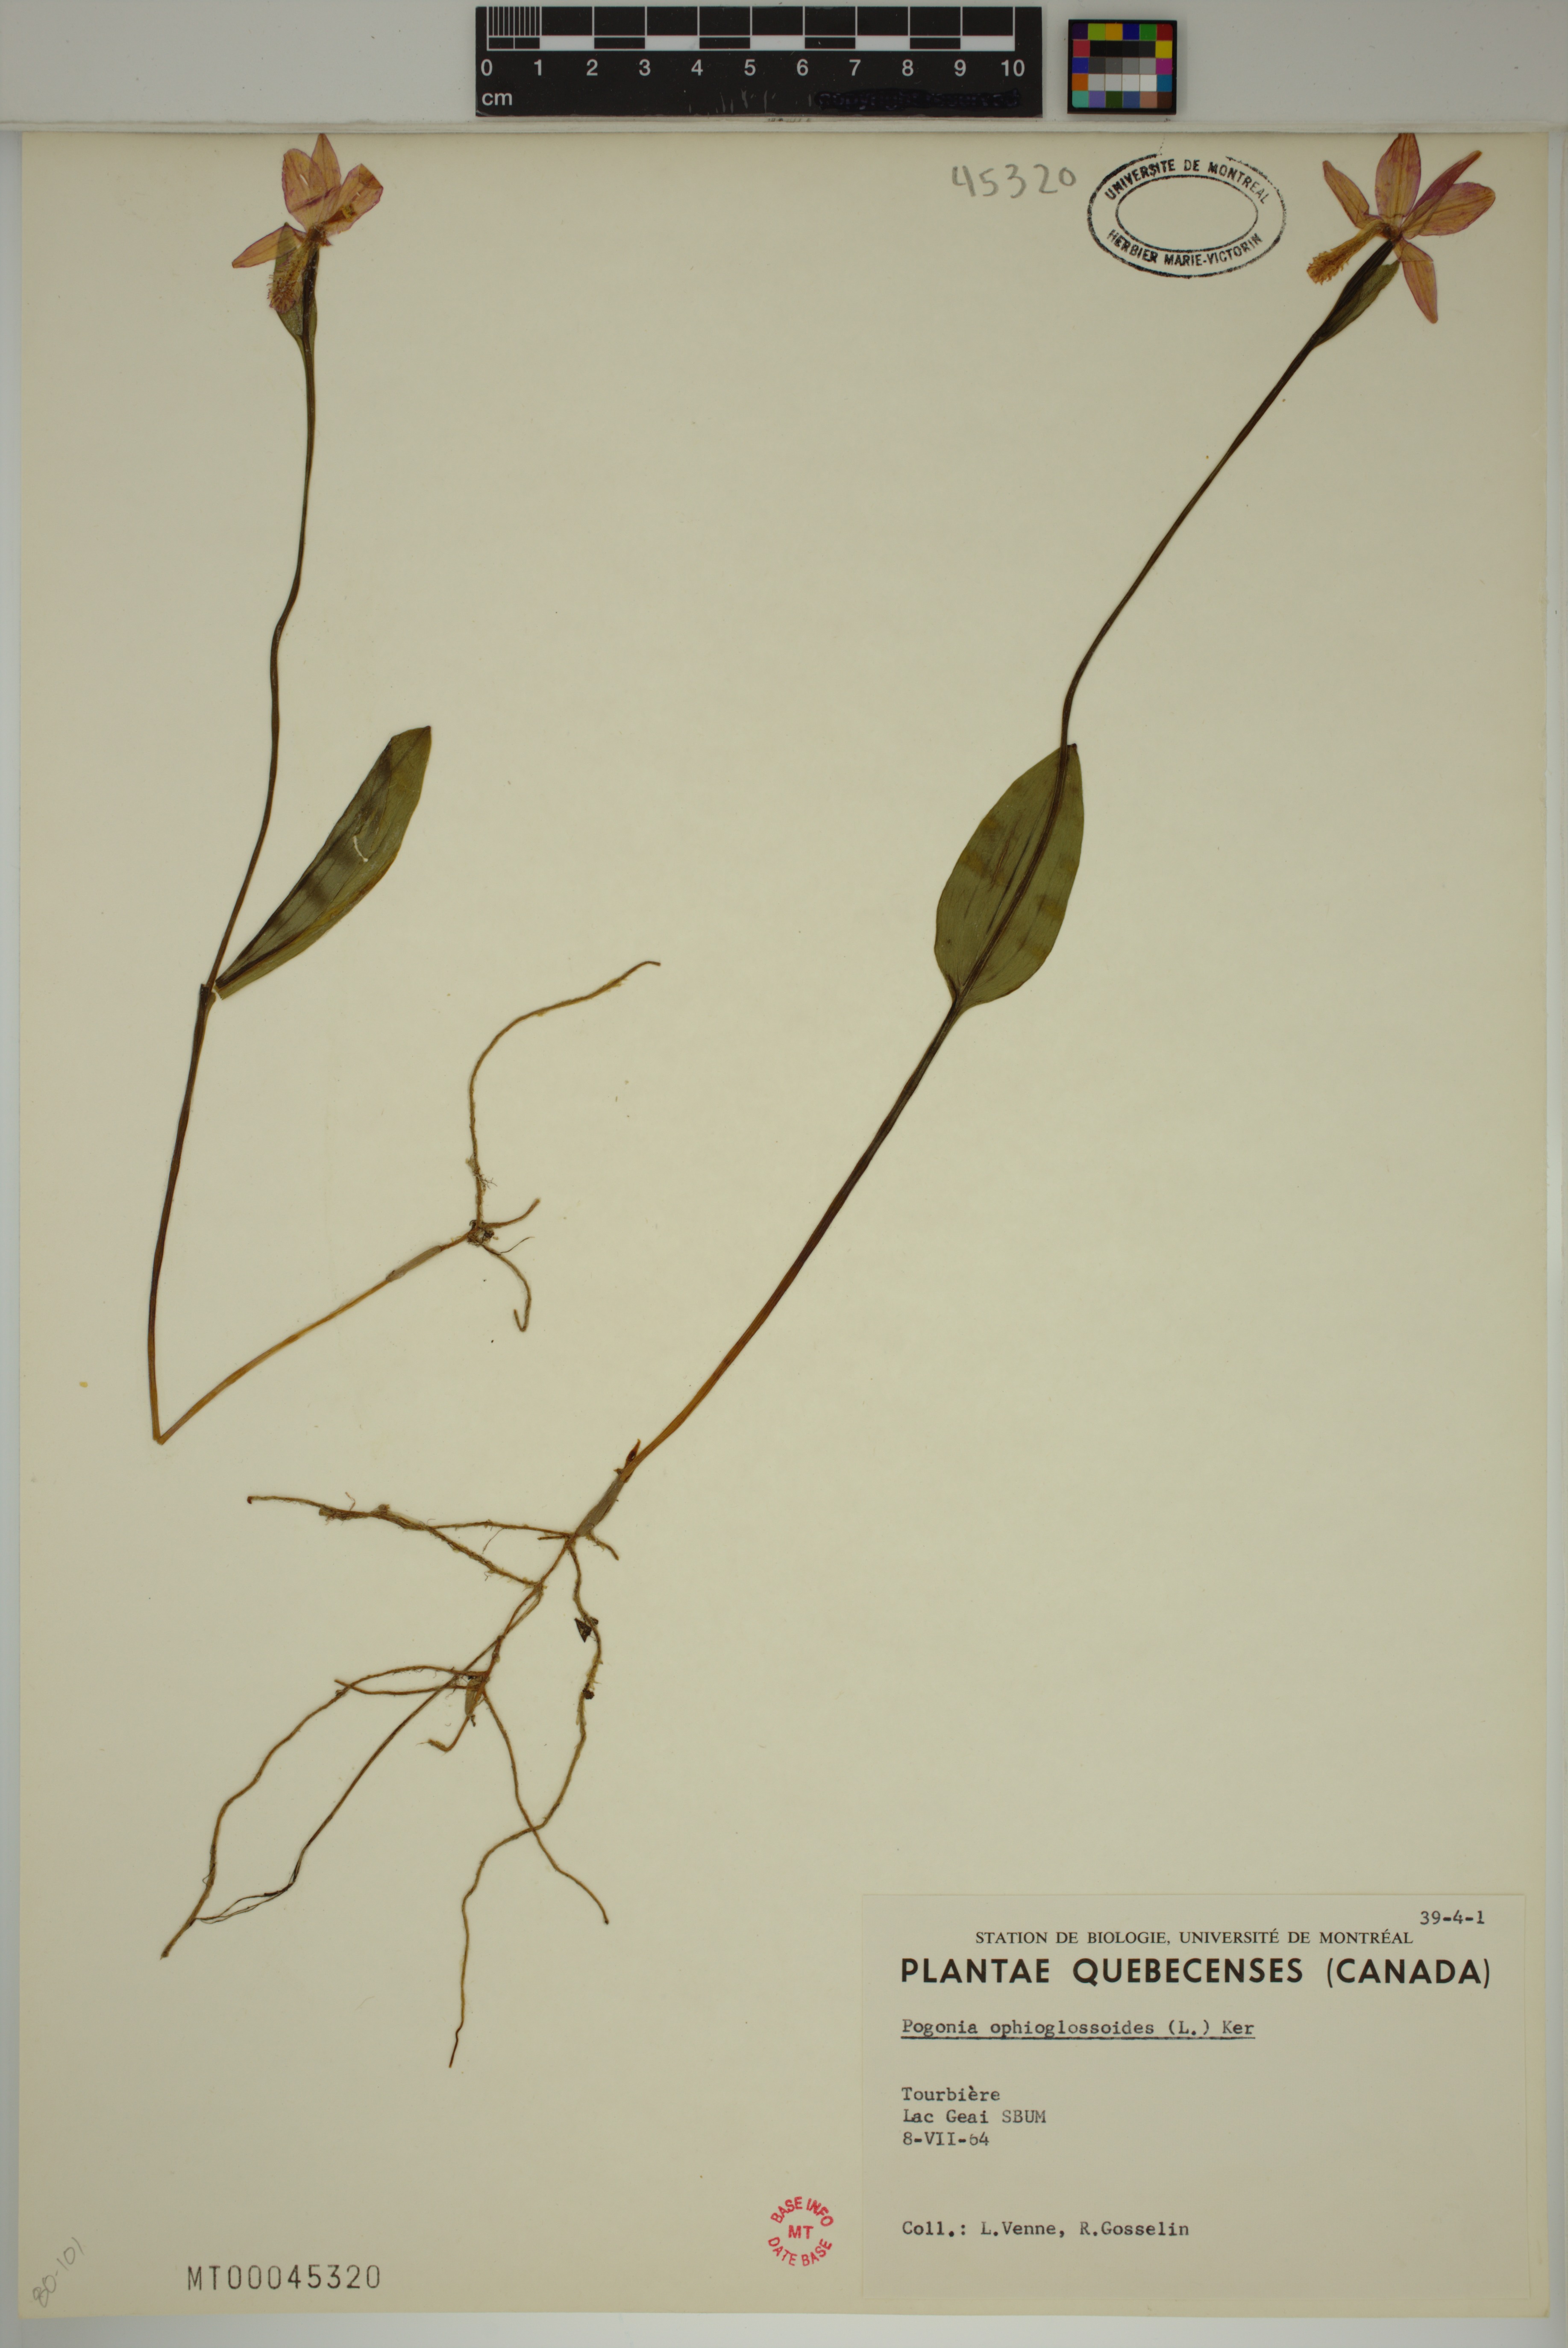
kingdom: Plantae
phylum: Tracheophyta
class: Liliopsida
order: Asparagales
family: Orchidaceae
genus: Pogonia
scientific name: Pogonia ophioglossoides
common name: Rose pogonia
